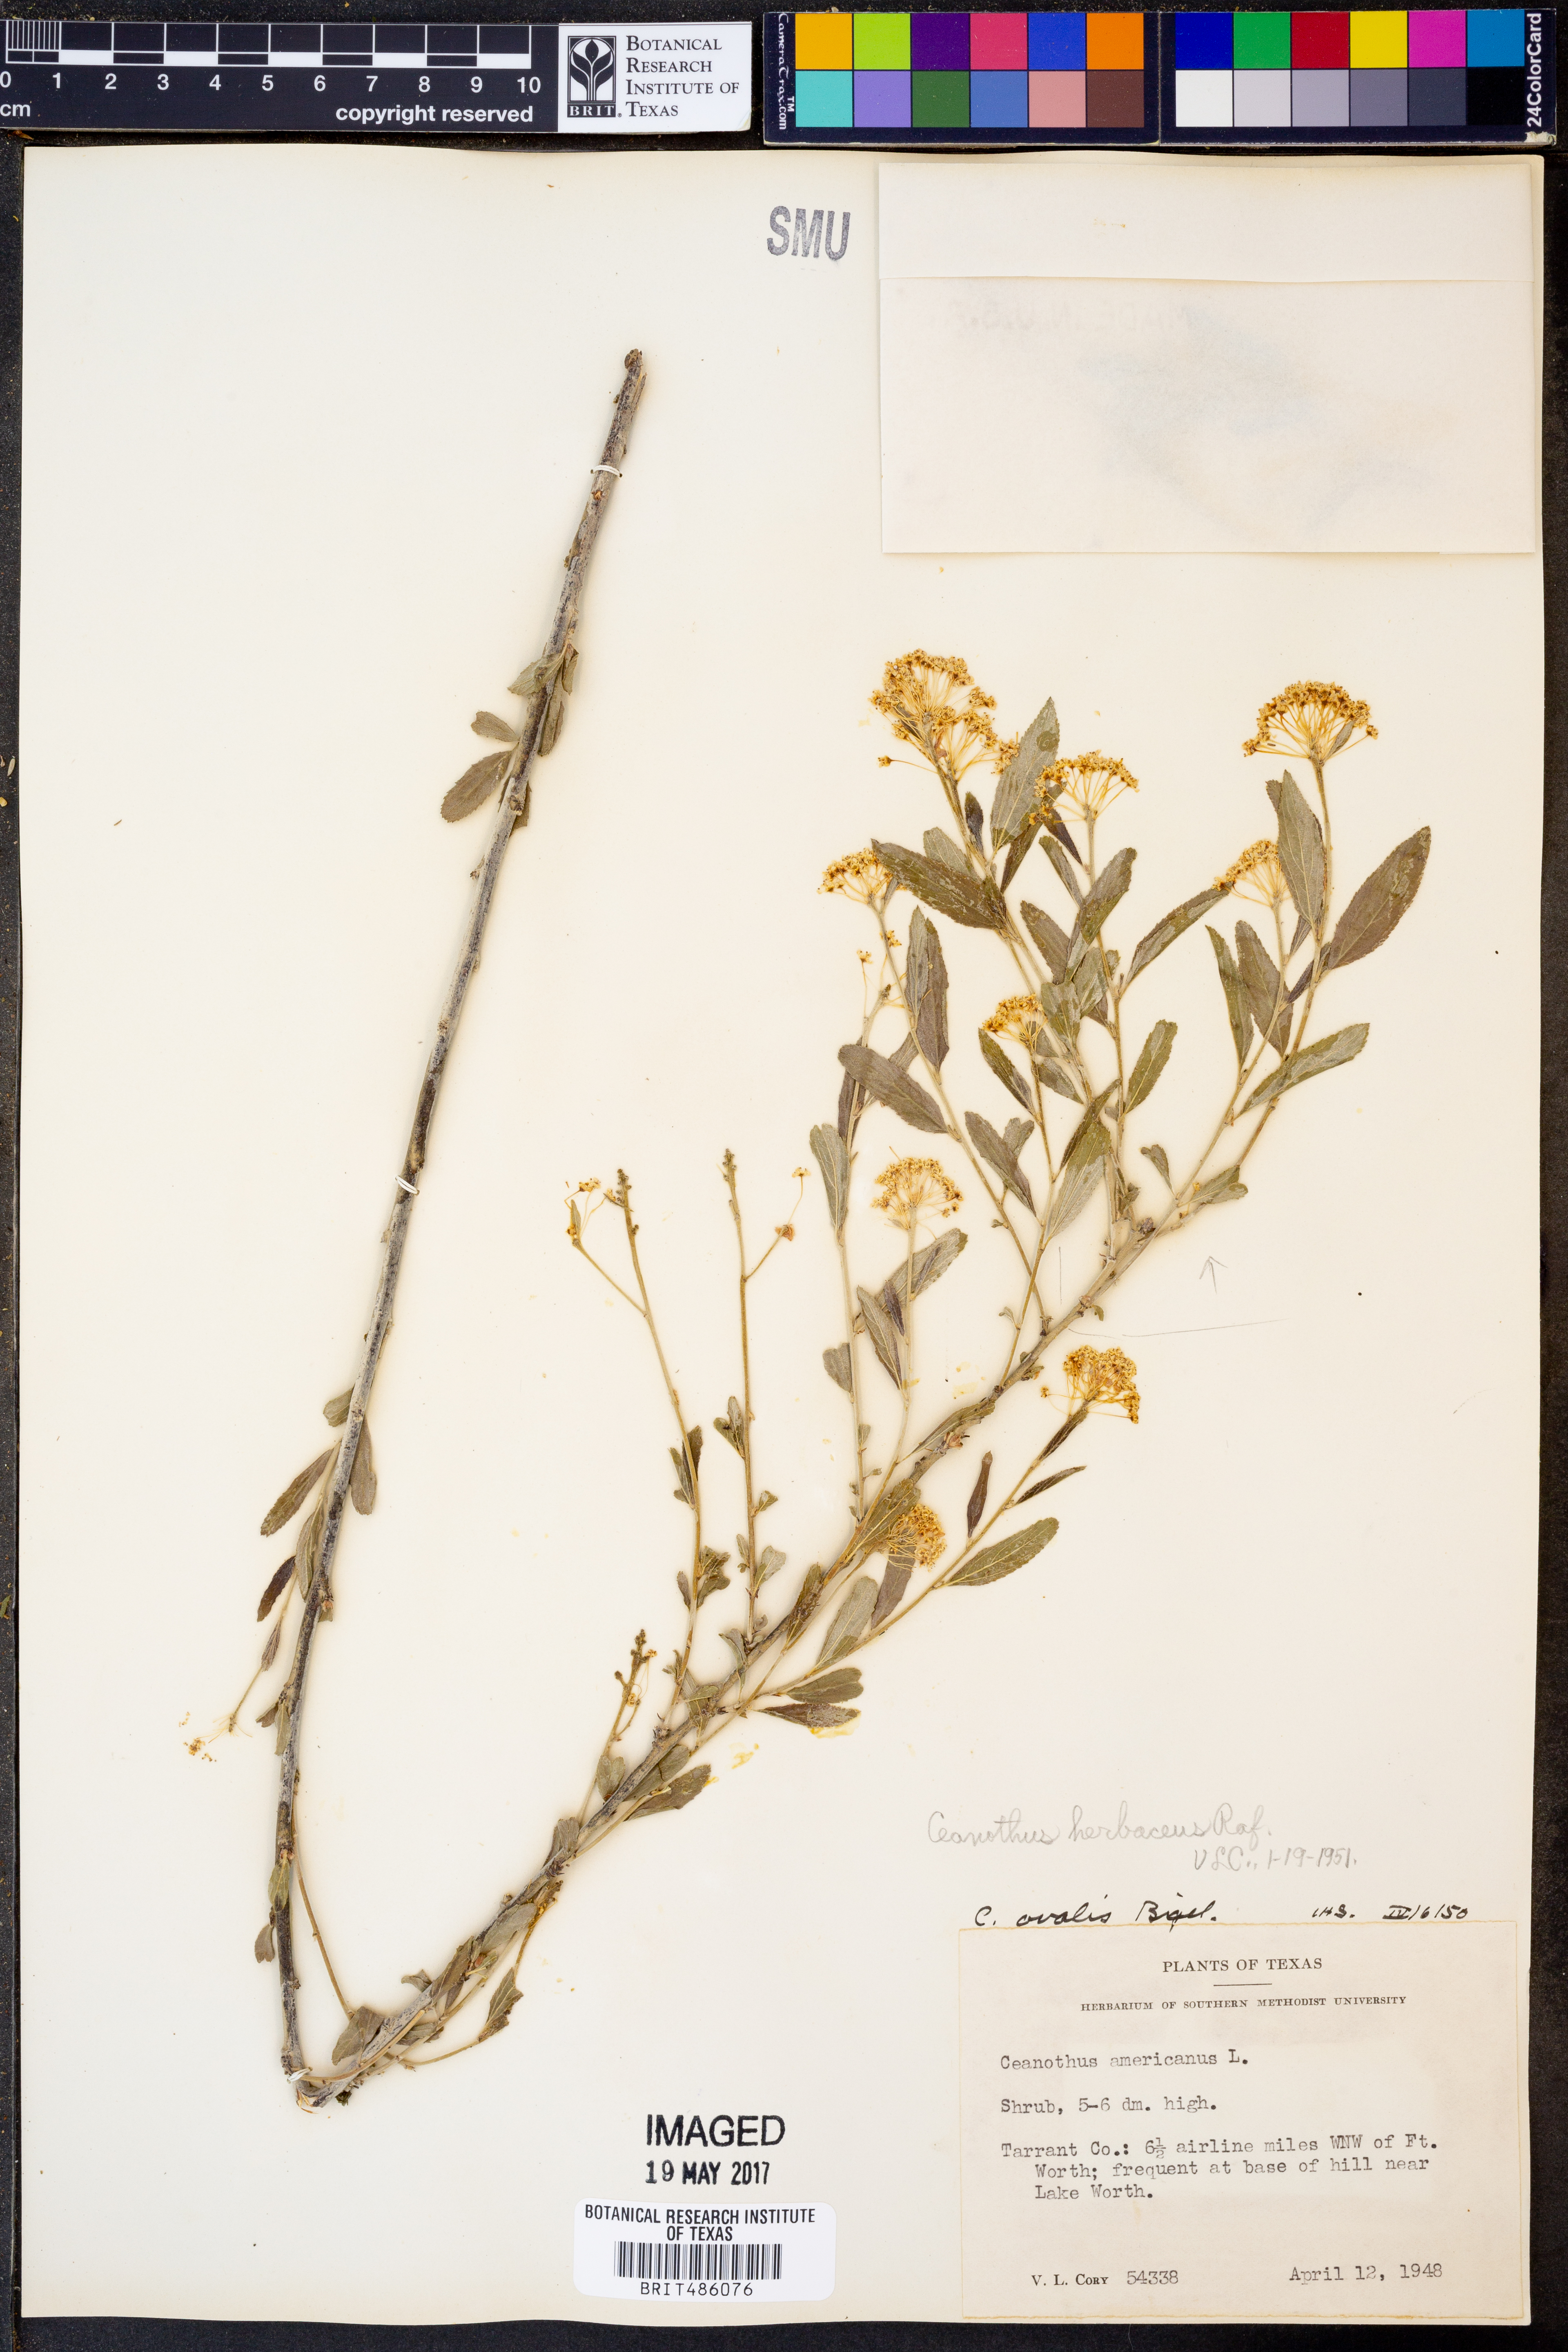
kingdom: Plantae
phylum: Tracheophyta
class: Magnoliopsida
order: Rosales
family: Rhamnaceae
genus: Ceanothus
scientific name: Ceanothus herbaceus
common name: Inland ceanothus
